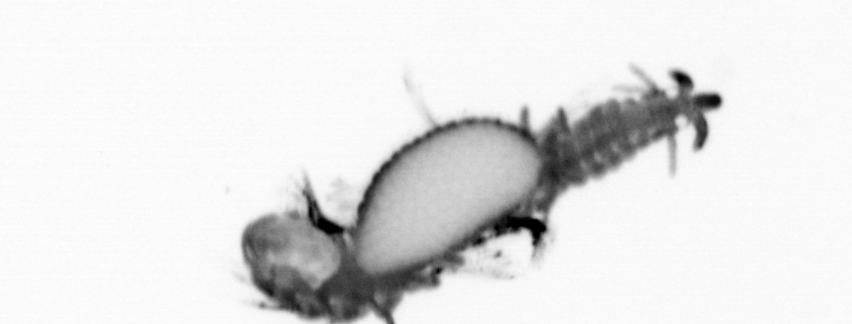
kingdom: Animalia
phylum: Annelida
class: Polychaeta
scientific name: Polychaeta
